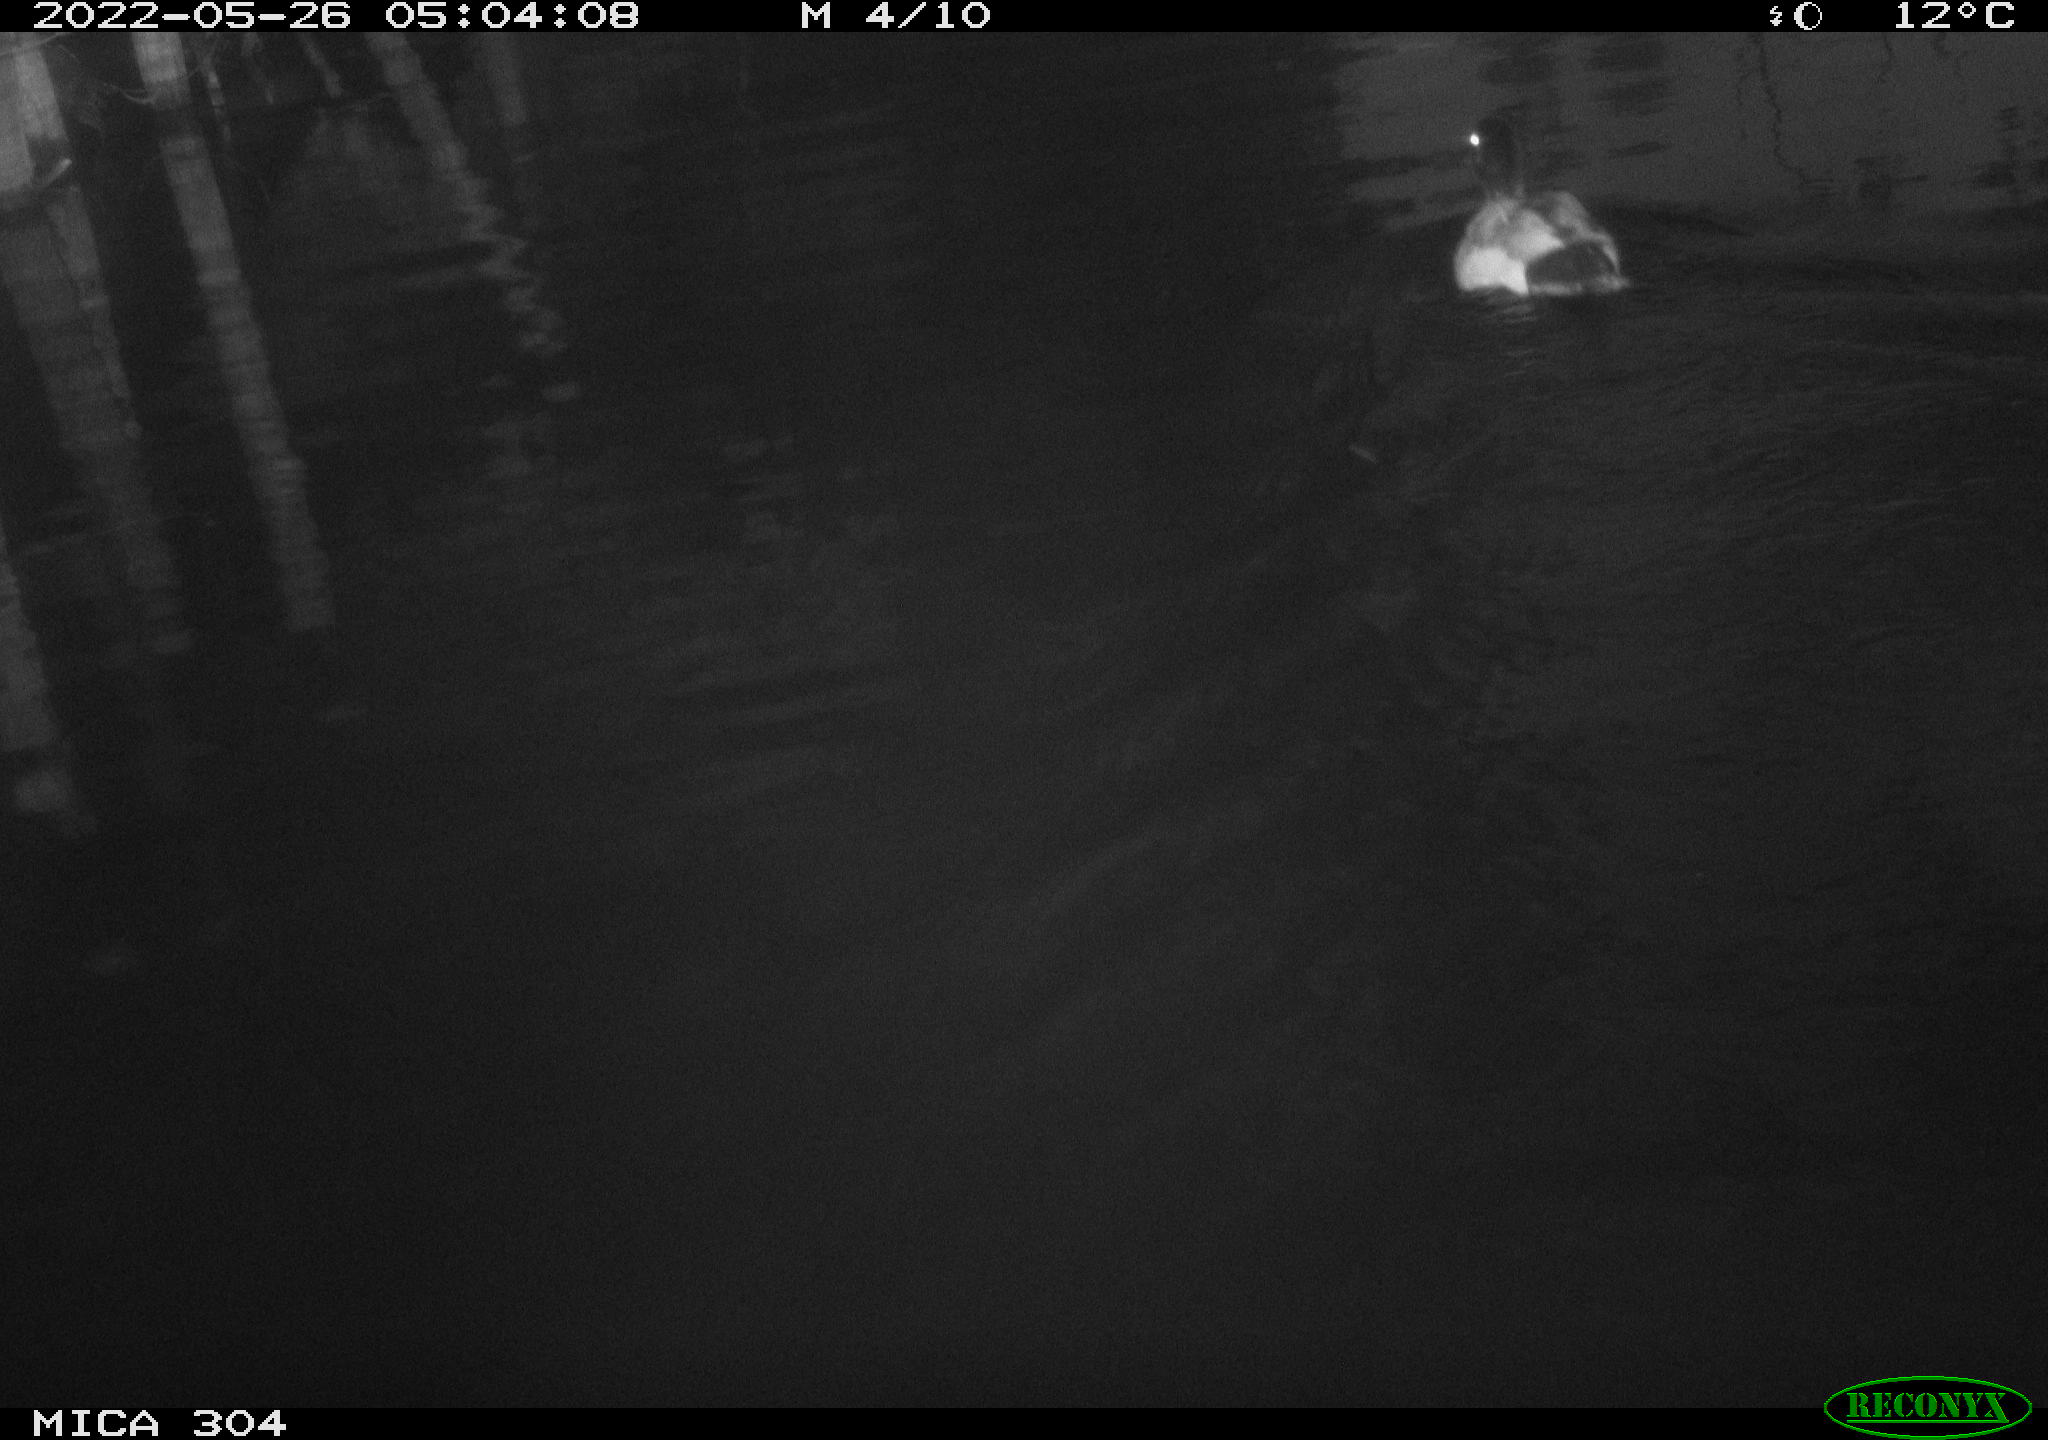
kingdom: Animalia
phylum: Chordata
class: Aves
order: Anseriformes
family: Anatidae
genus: Anas
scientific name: Anas platyrhynchos
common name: Mallard
